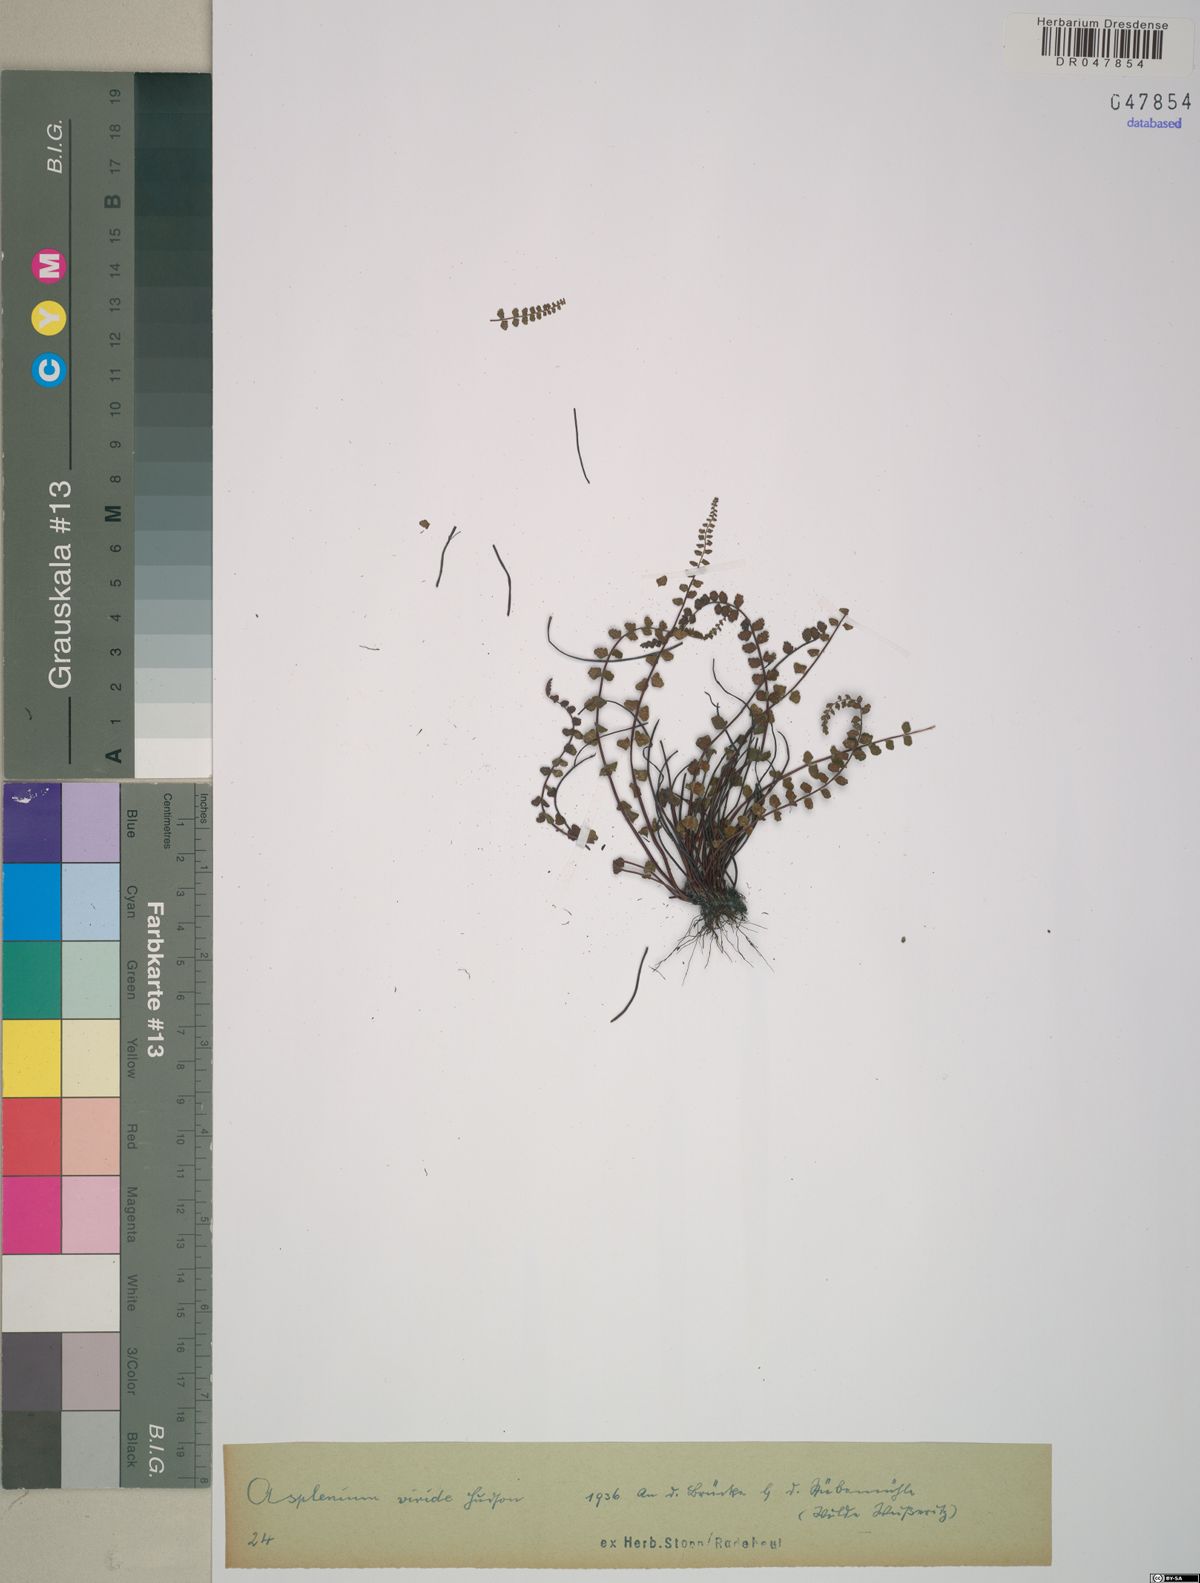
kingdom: Plantae
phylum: Tracheophyta
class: Polypodiopsida
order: Polypodiales
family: Aspleniaceae
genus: Asplenium
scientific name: Asplenium viride
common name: Green spleenwort
